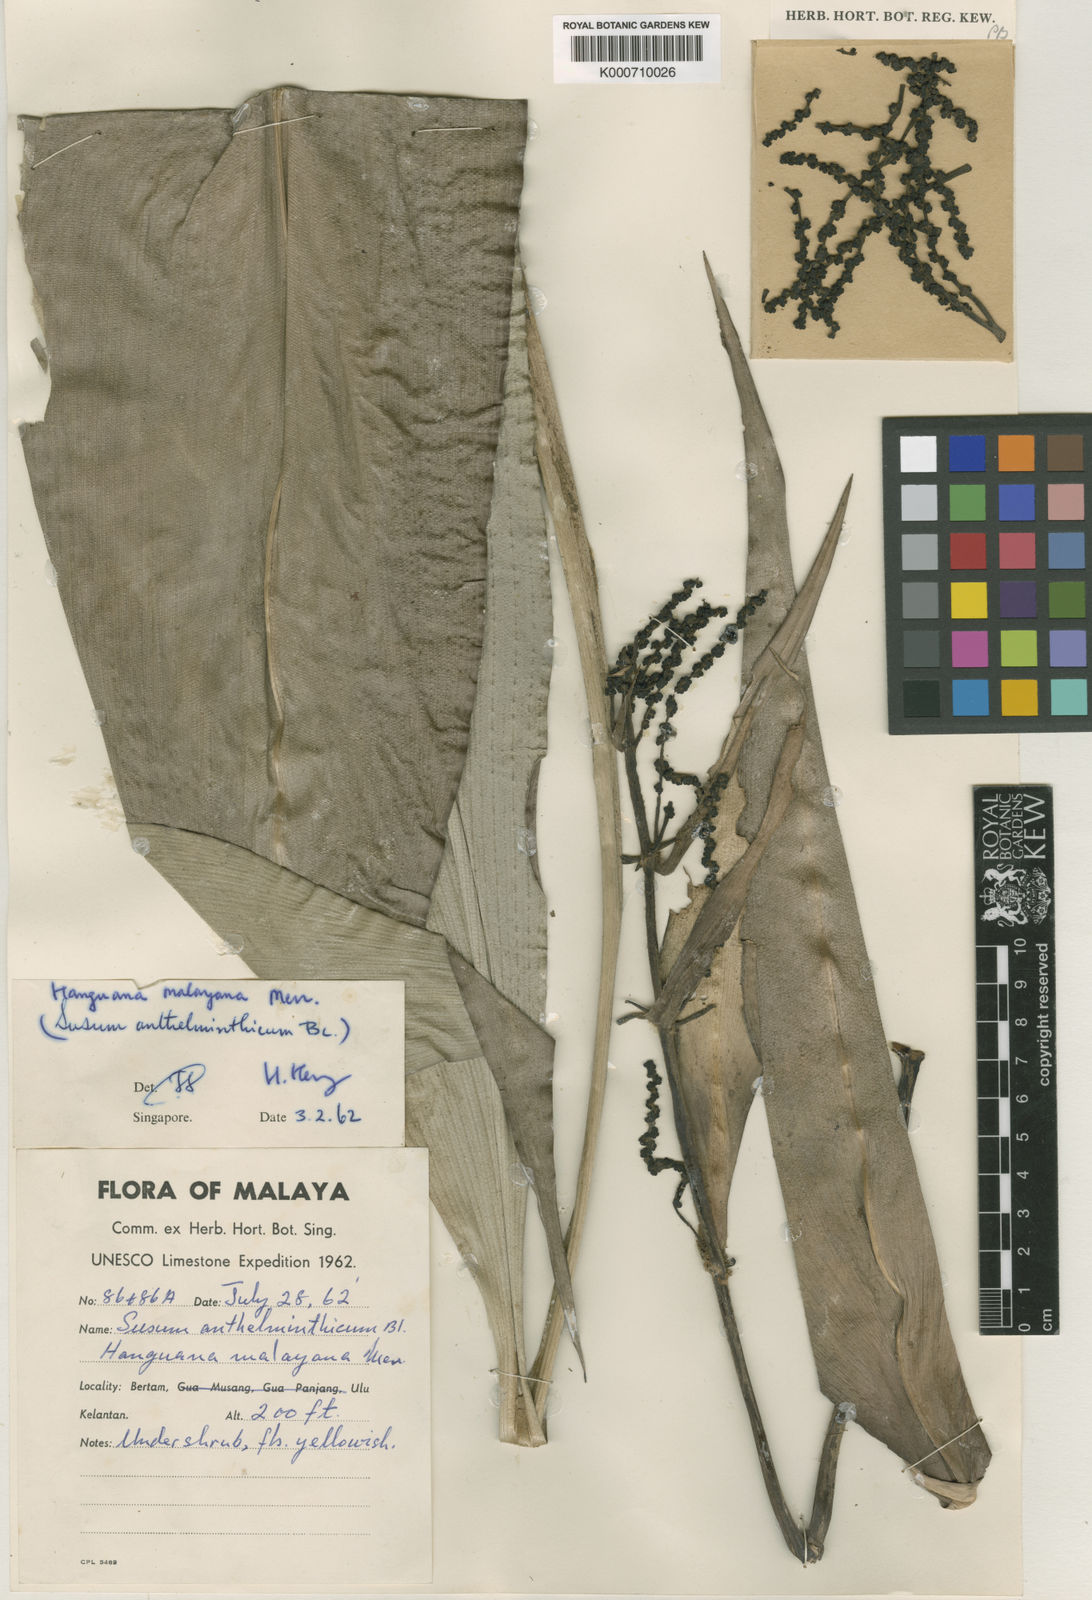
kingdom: Plantae
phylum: Tracheophyta
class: Liliopsida
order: Commelinales
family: Hanguanaceae
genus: Hanguana
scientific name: Hanguana malayana
